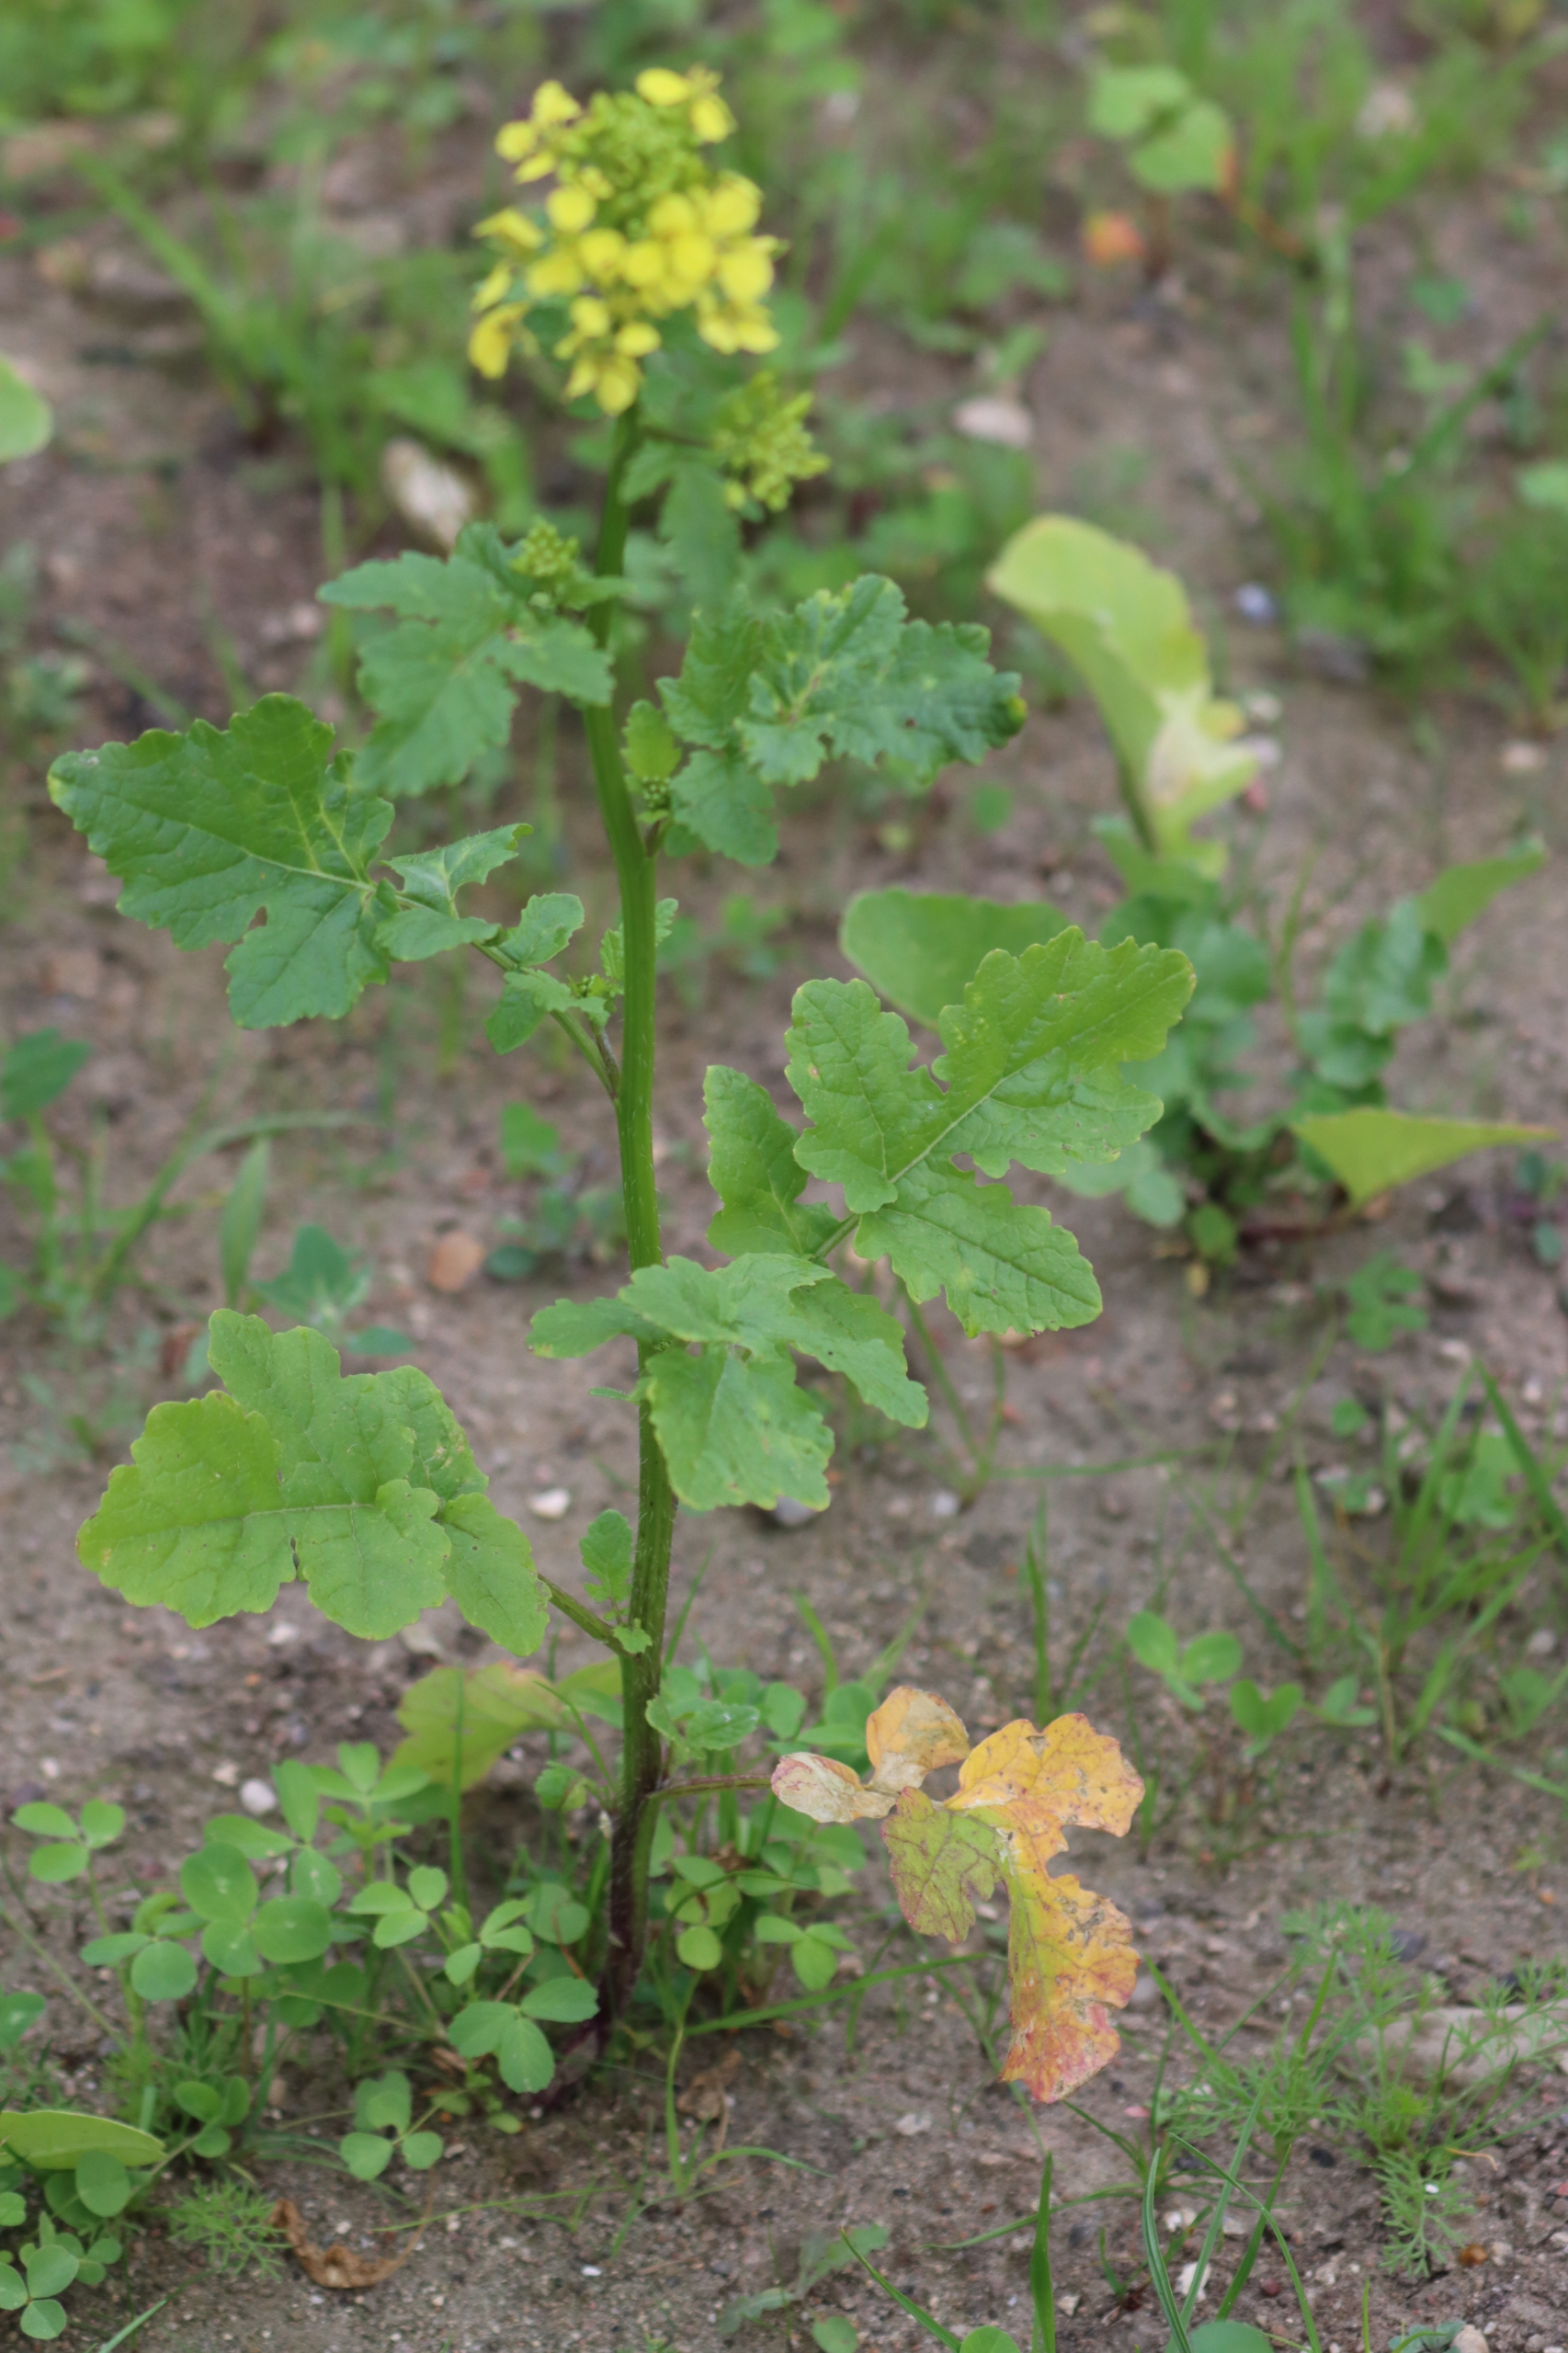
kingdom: Plantae
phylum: Tracheophyta
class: Magnoliopsida
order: Brassicales
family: Brassicaceae
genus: Sinapis
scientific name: Sinapis alba
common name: Gul sennep
